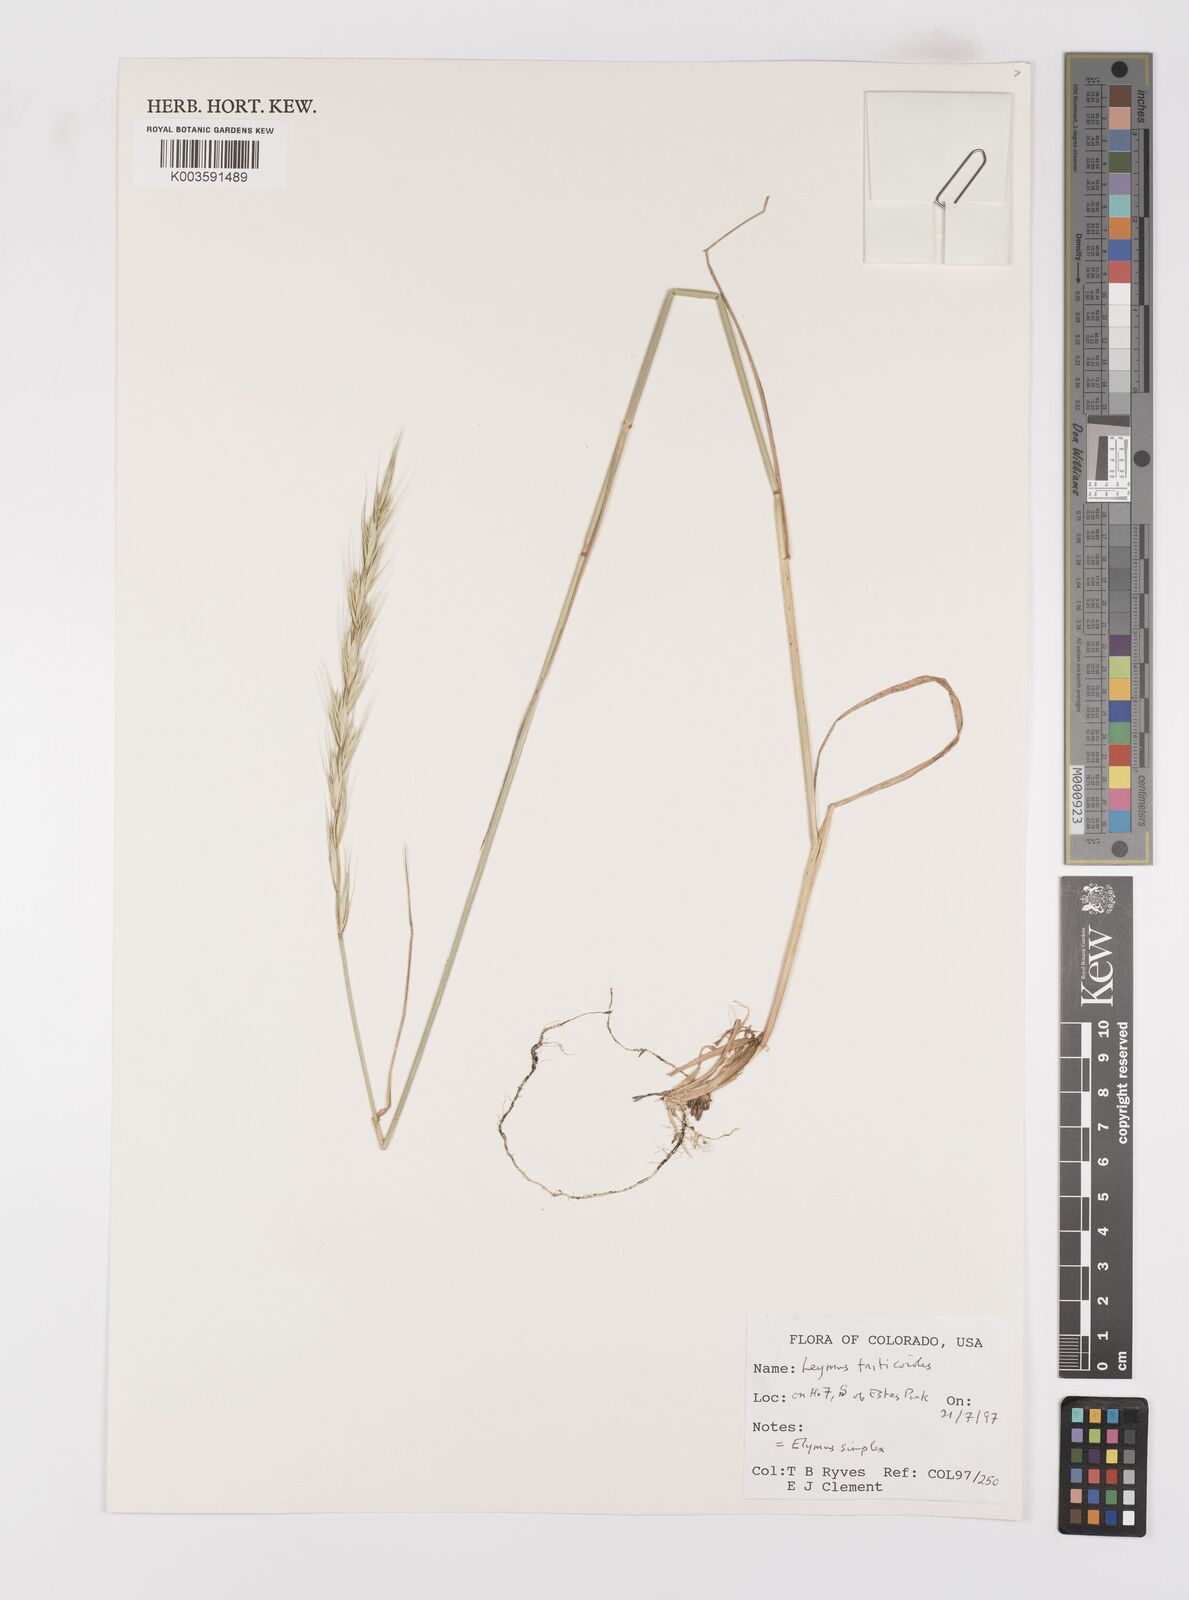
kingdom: Plantae
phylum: Tracheophyta
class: Liliopsida
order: Poales
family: Poaceae
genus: Leymus
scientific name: Leymus triticoides
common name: Beardless wild rye
